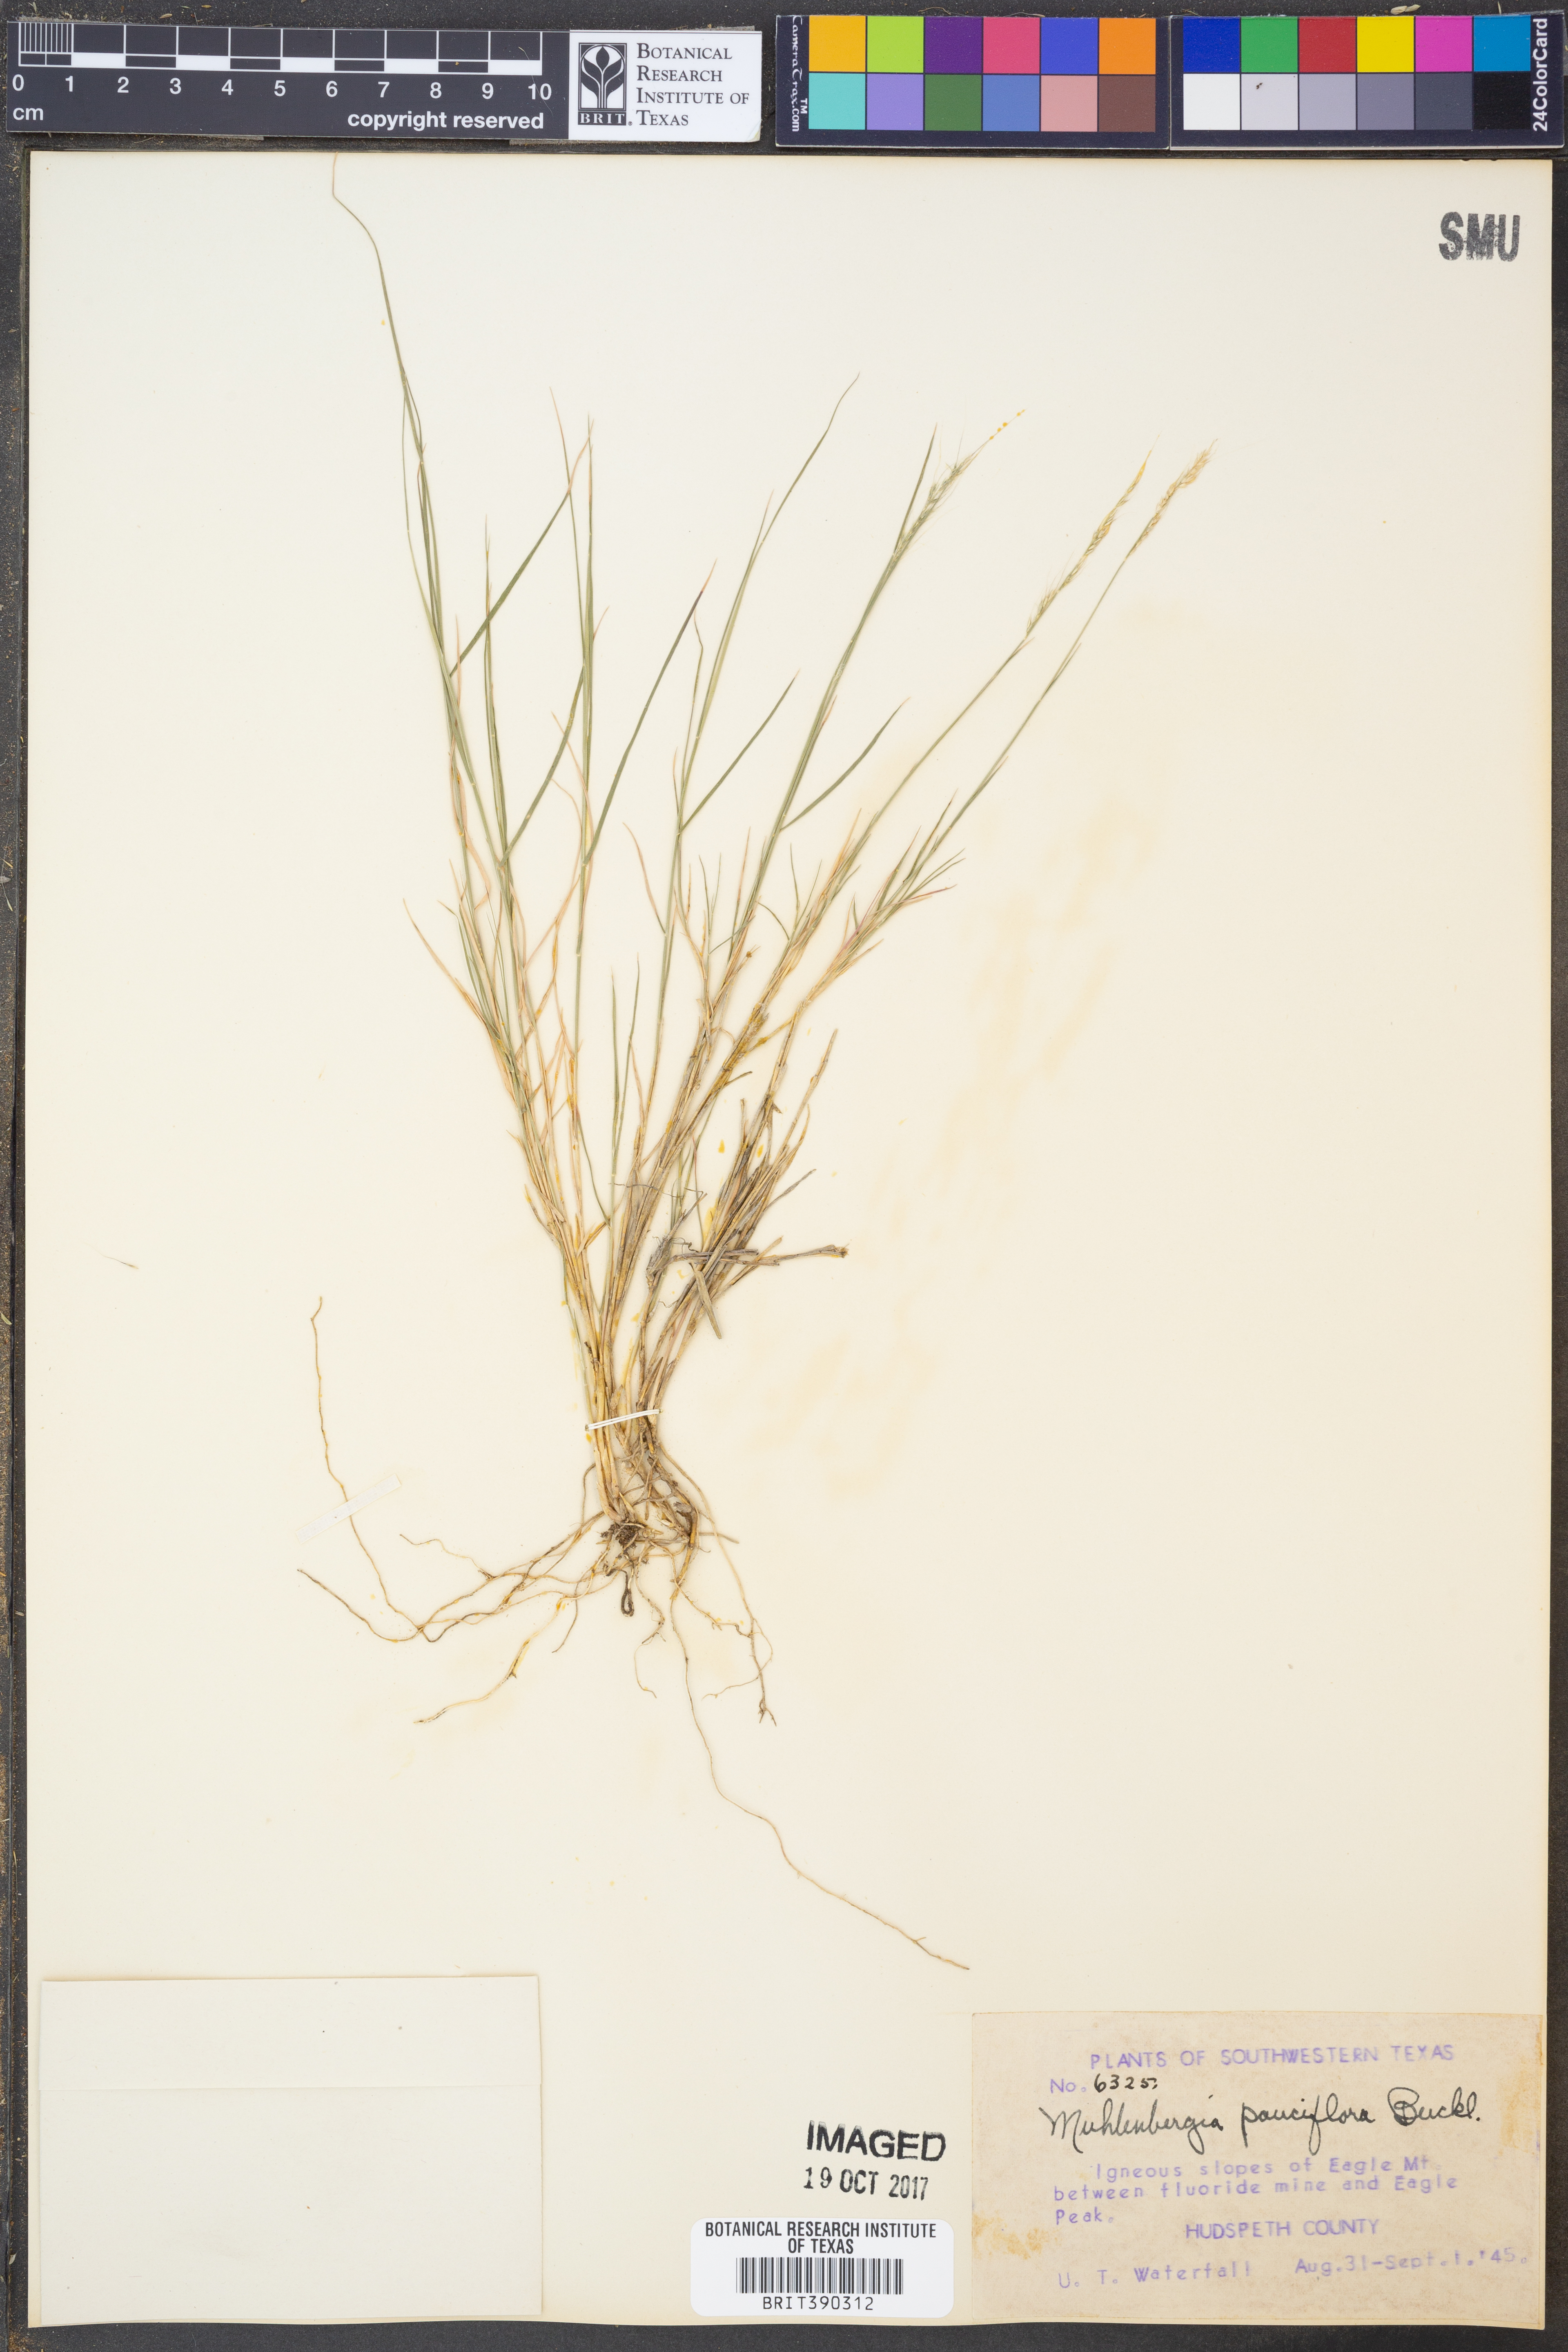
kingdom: Plantae
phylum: Tracheophyta
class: Liliopsida
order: Poales
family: Poaceae
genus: Muhlenbergia
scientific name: Muhlenbergia pauciflora
